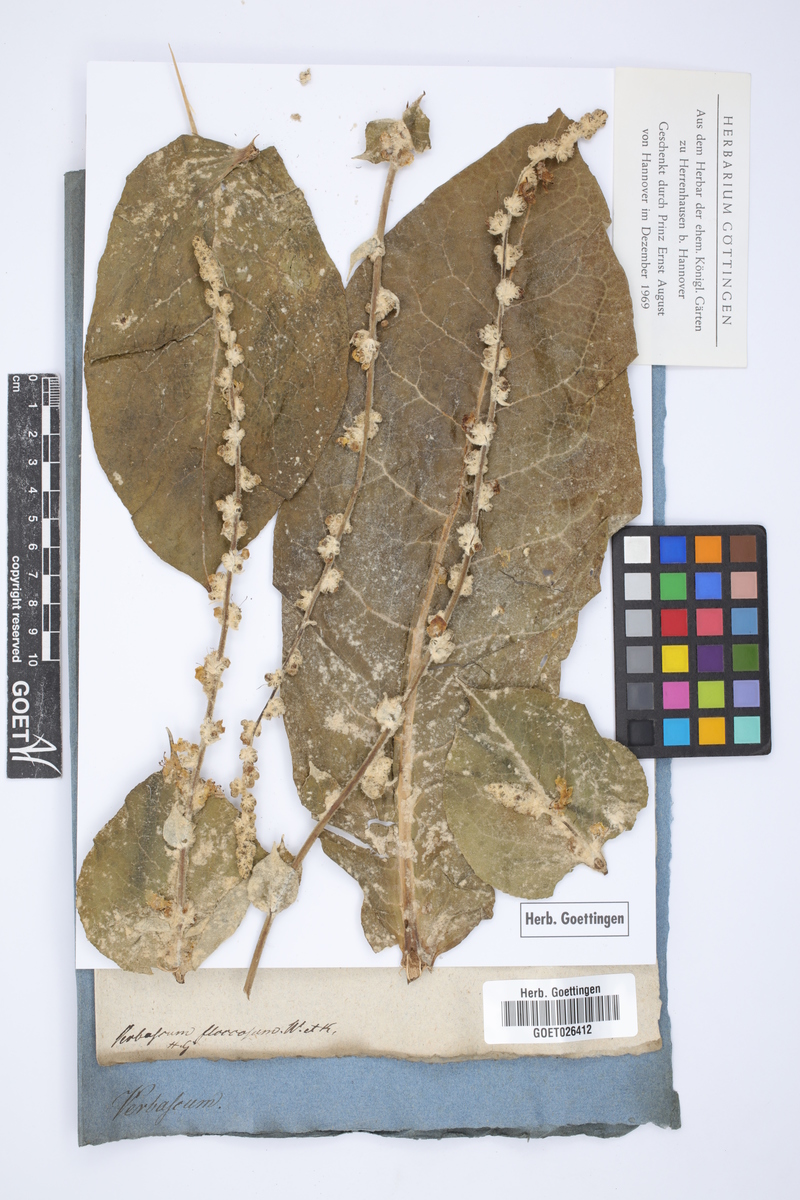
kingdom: Plantae
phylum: Tracheophyta
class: Magnoliopsida
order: Lamiales
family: Scrophulariaceae
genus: Verbascum
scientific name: Verbascum pulverulentum
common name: Broad-leaf mullein
